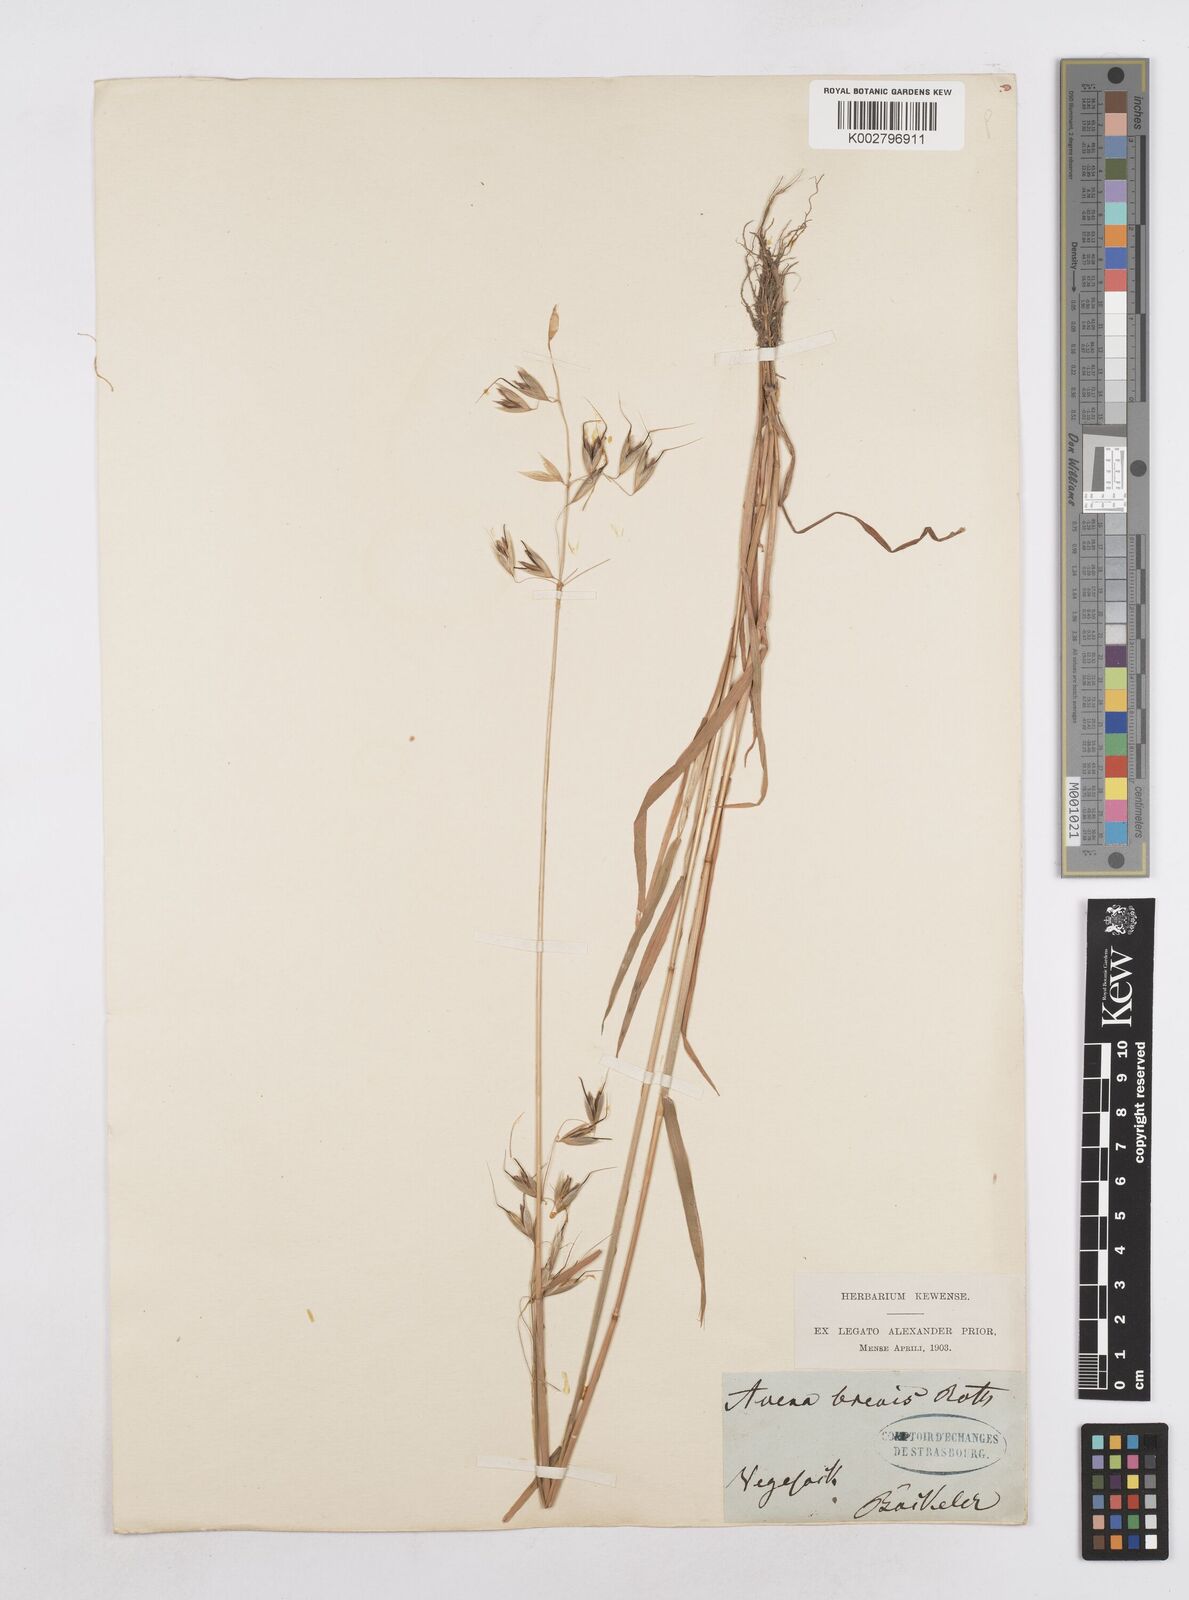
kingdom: Plantae
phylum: Tracheophyta
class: Liliopsida
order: Poales
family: Poaceae
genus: Avena
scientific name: Avena brevis
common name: Short oat
